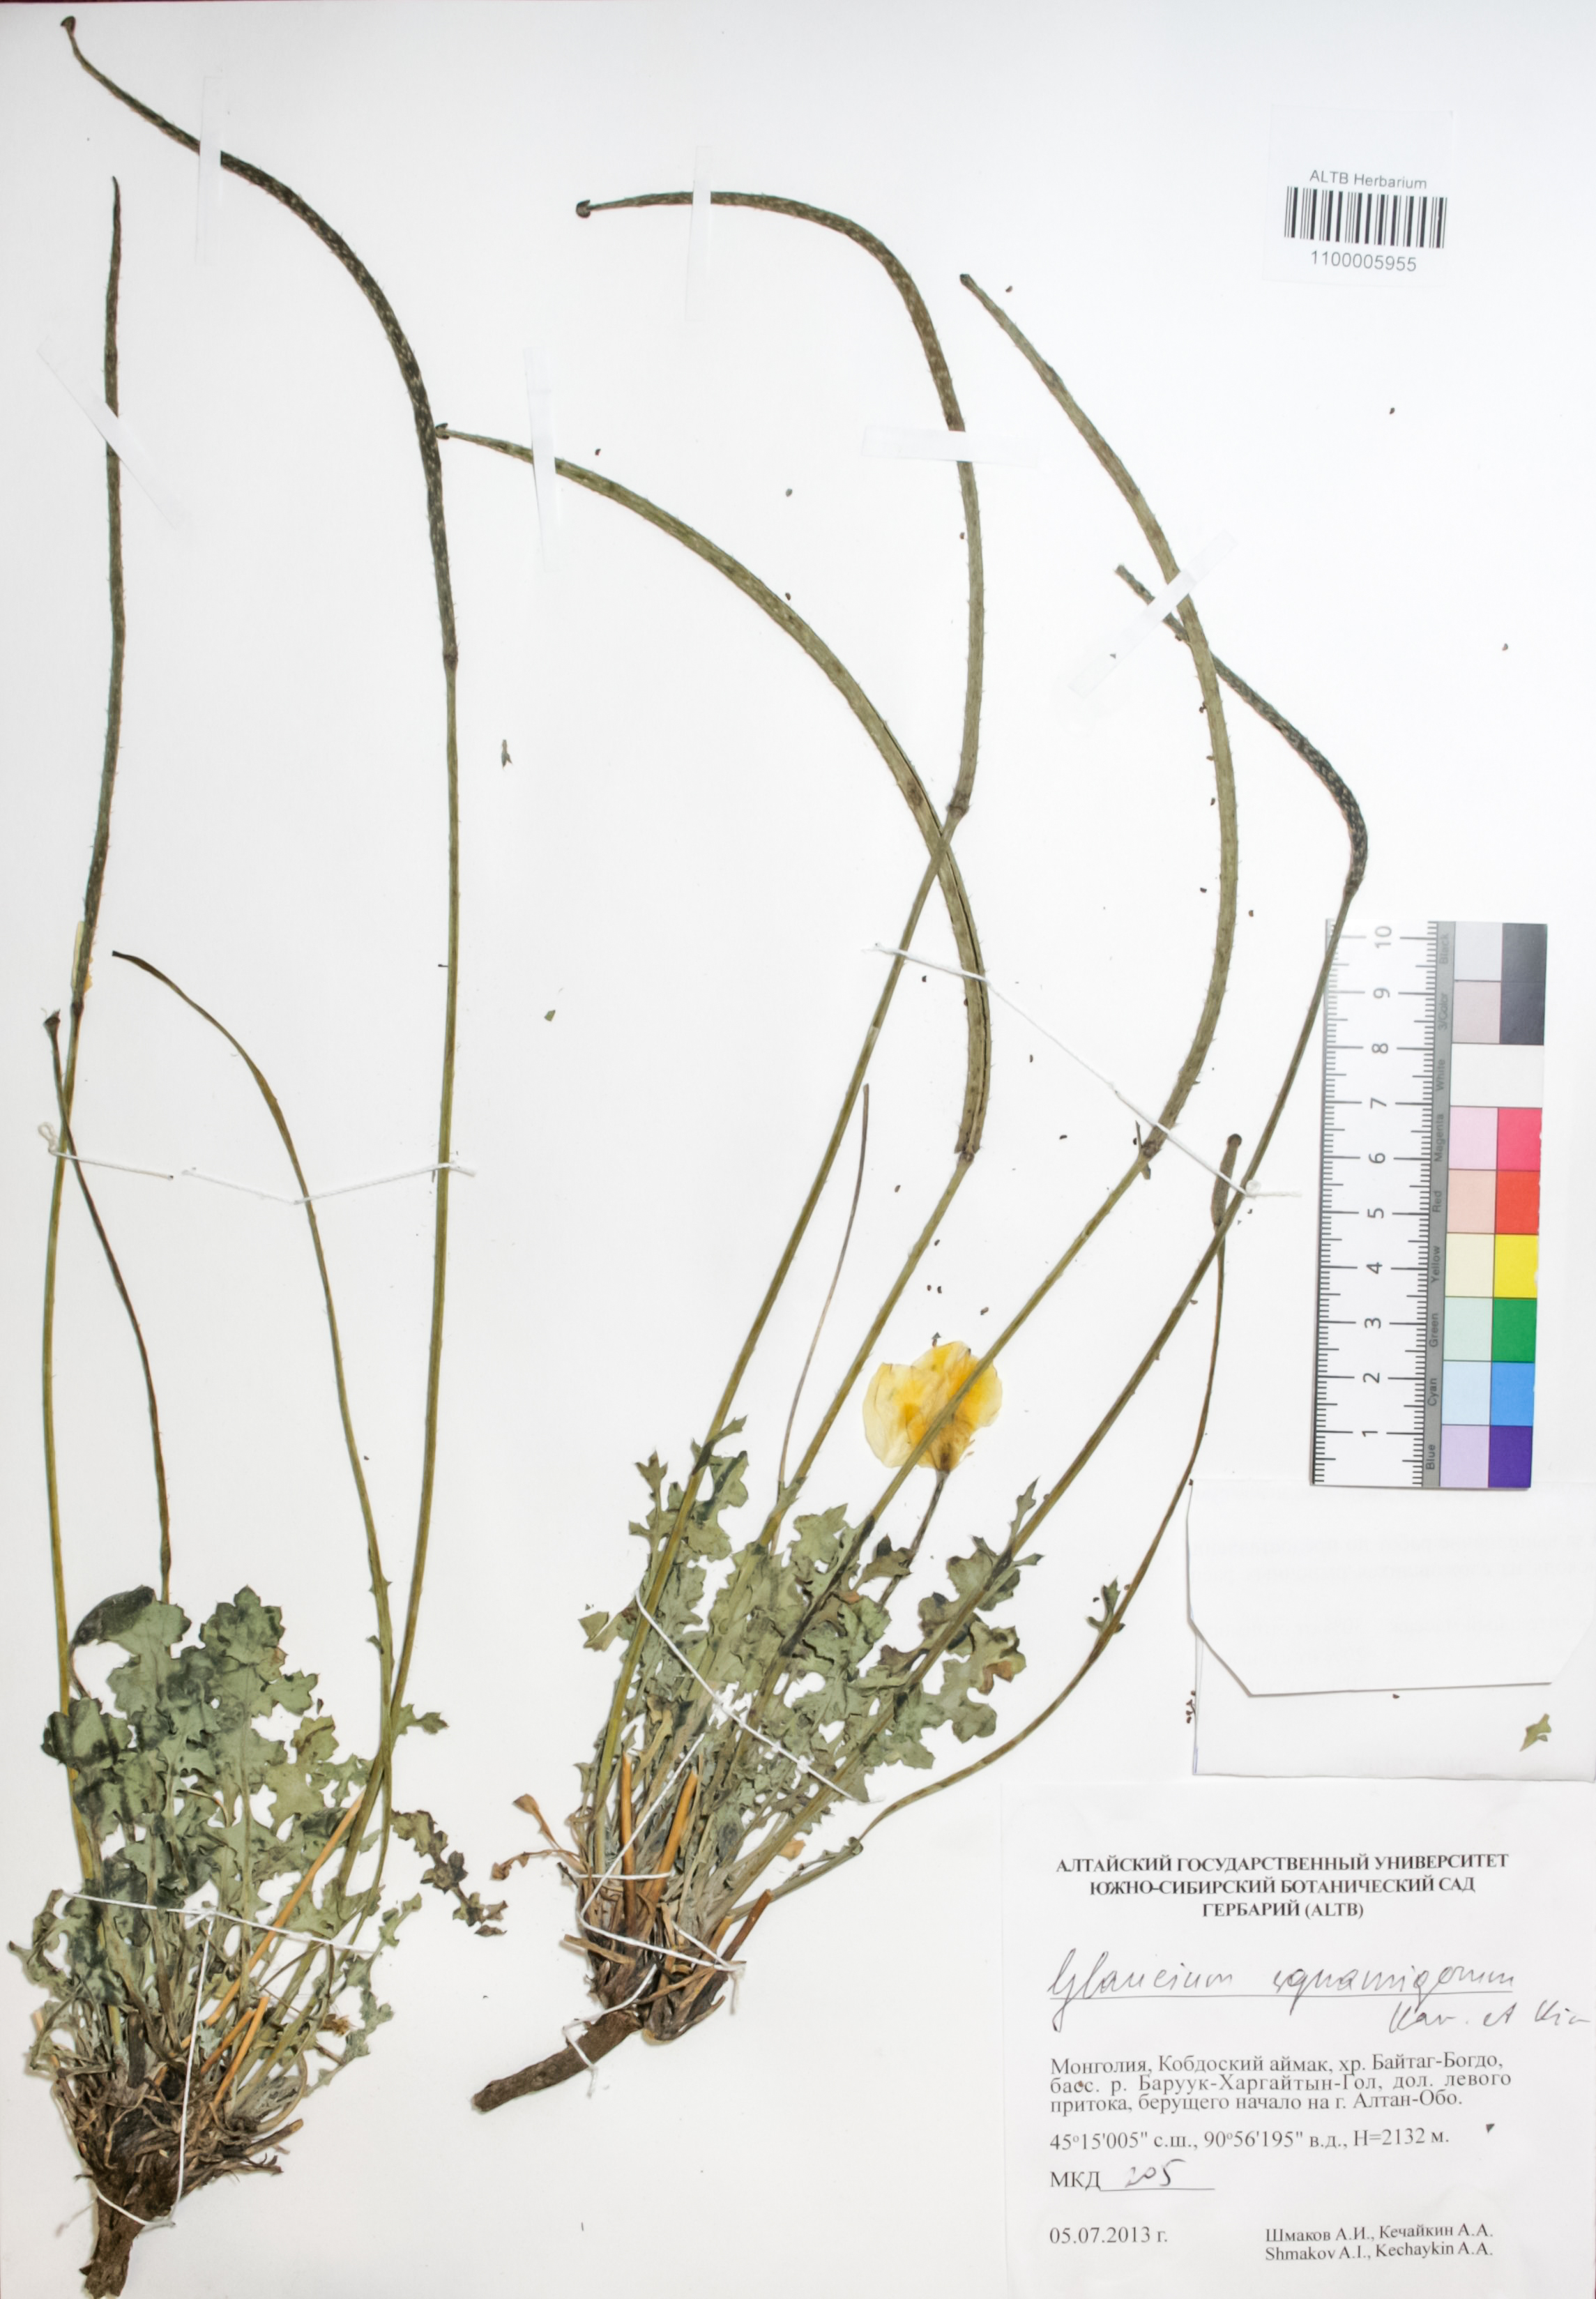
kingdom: Plantae
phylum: Tracheophyta
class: Magnoliopsida
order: Ranunculales
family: Papaveraceae
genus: Glaucium
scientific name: Glaucium squamigerum
